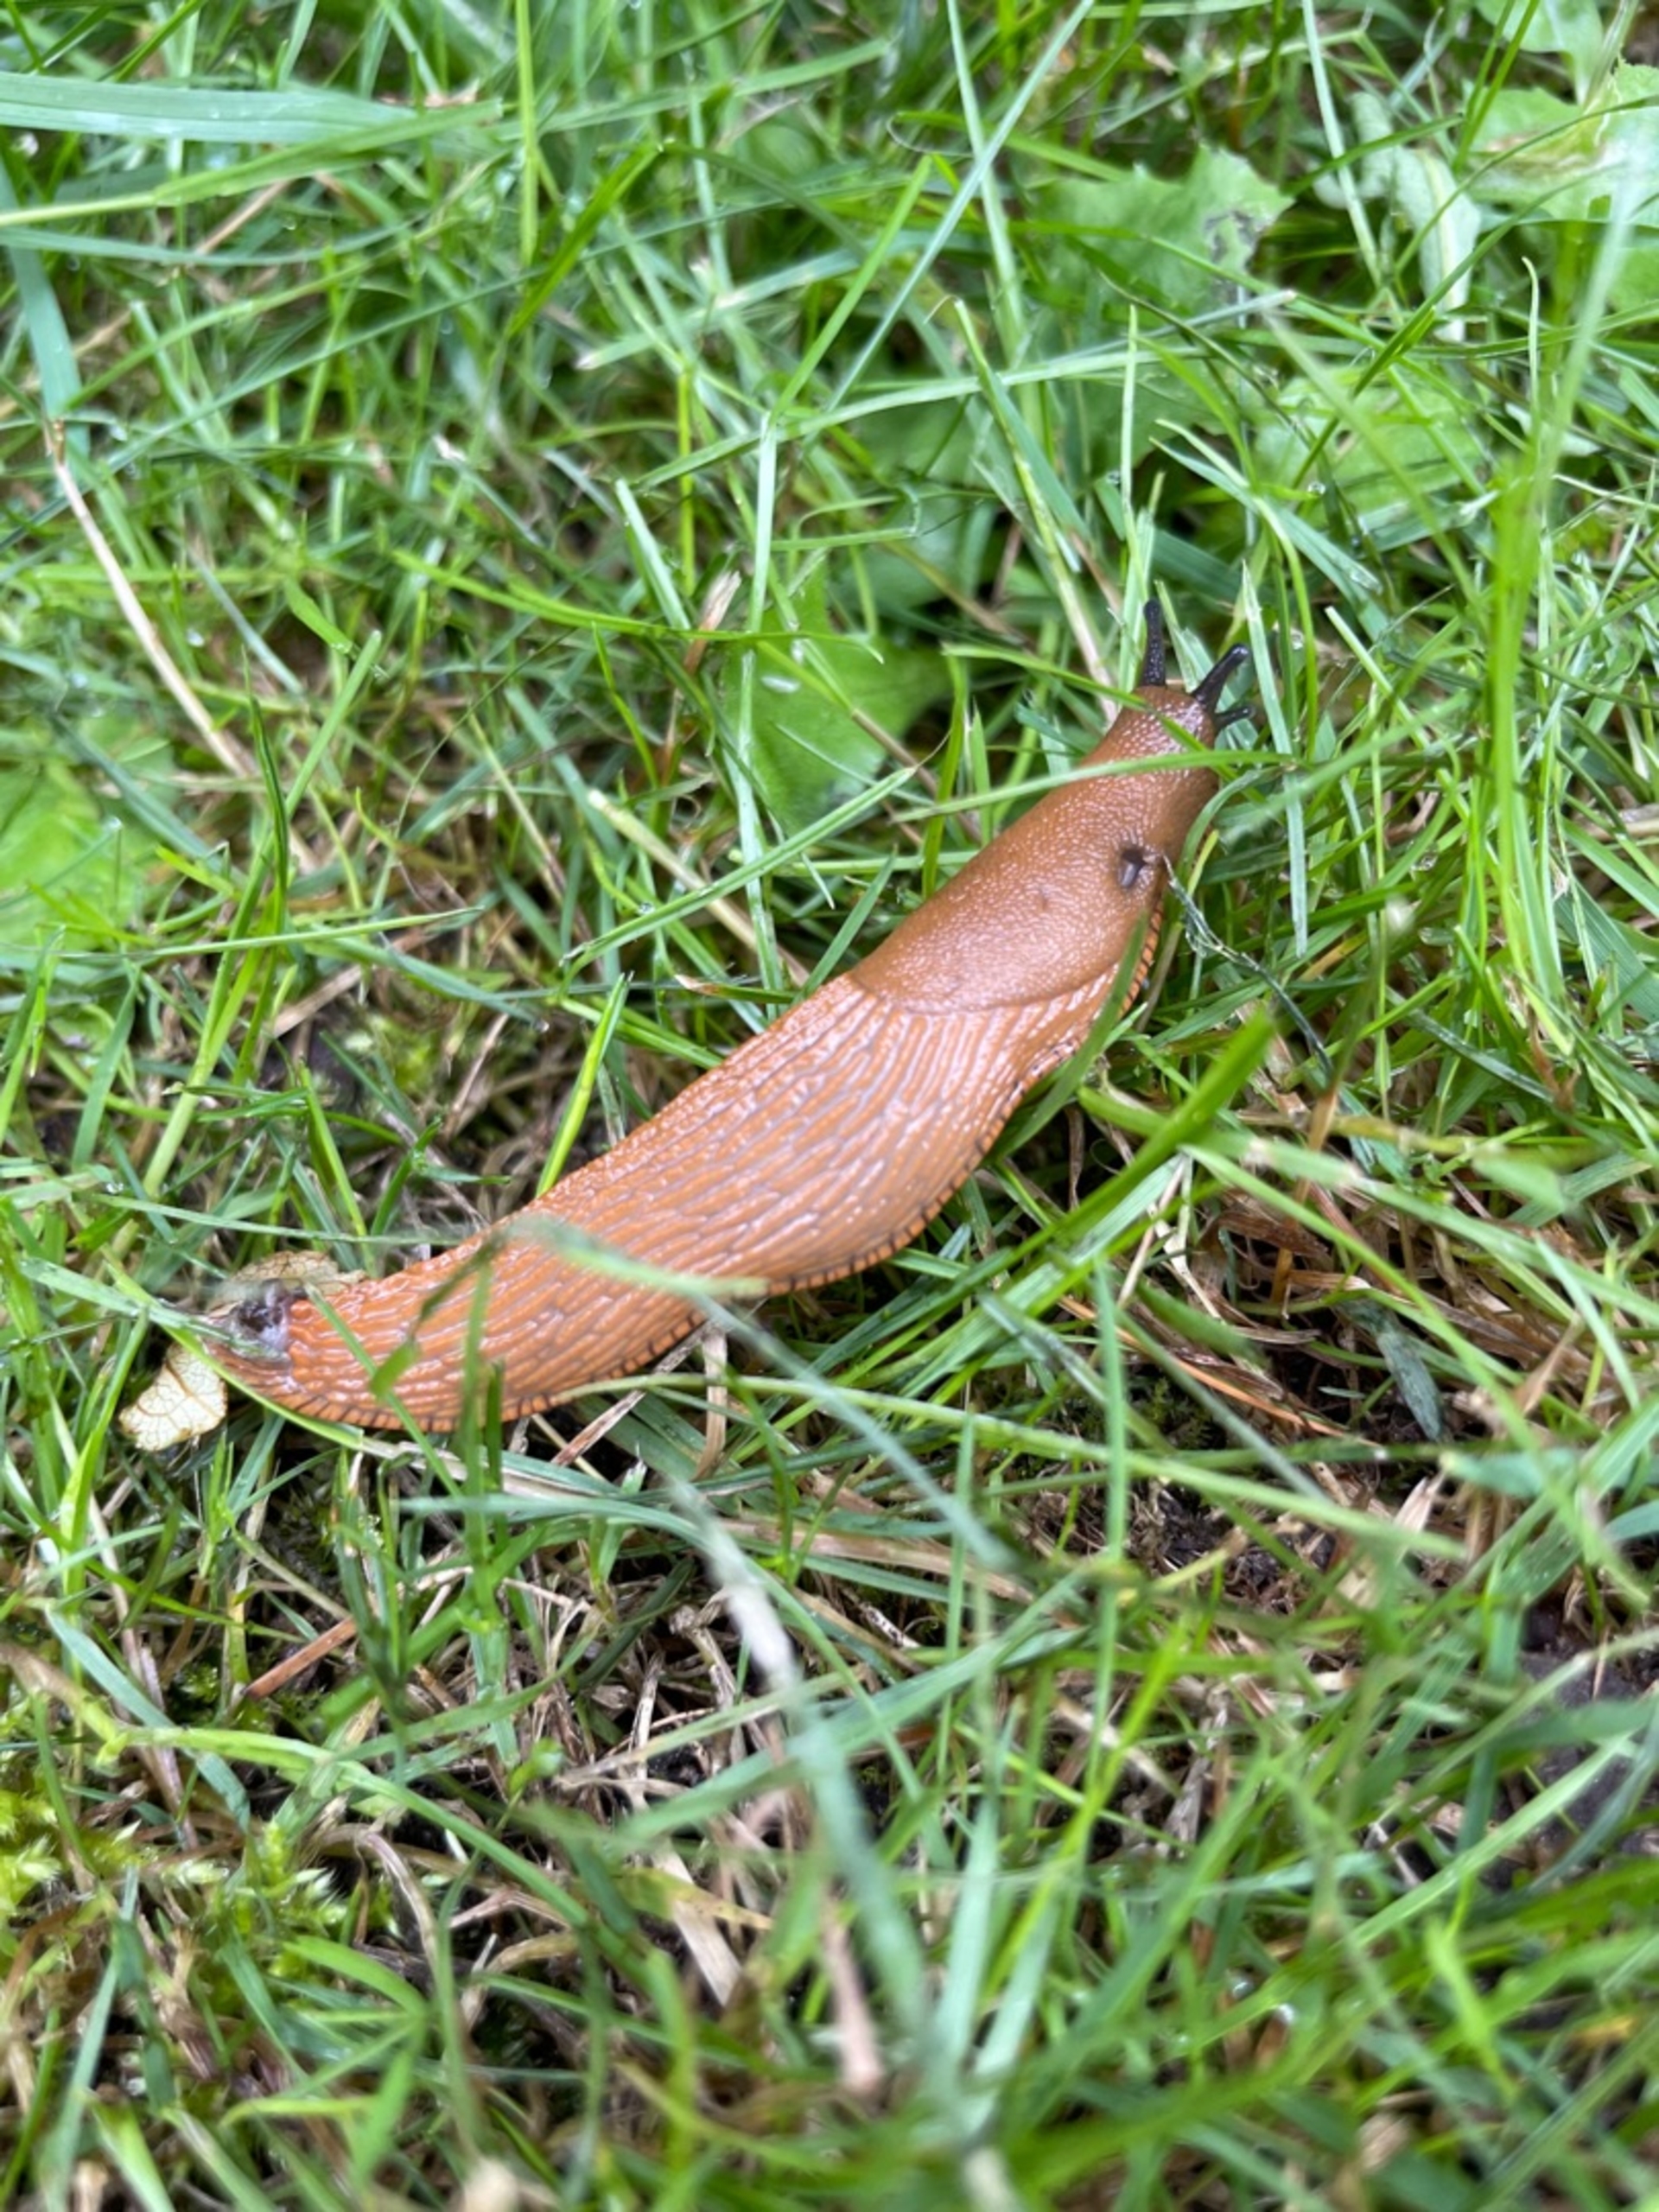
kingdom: Animalia
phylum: Mollusca
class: Gastropoda
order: Stylommatophora
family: Arionidae
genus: Arion
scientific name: Arion vulgaris
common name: Iberisk skovsnegl
